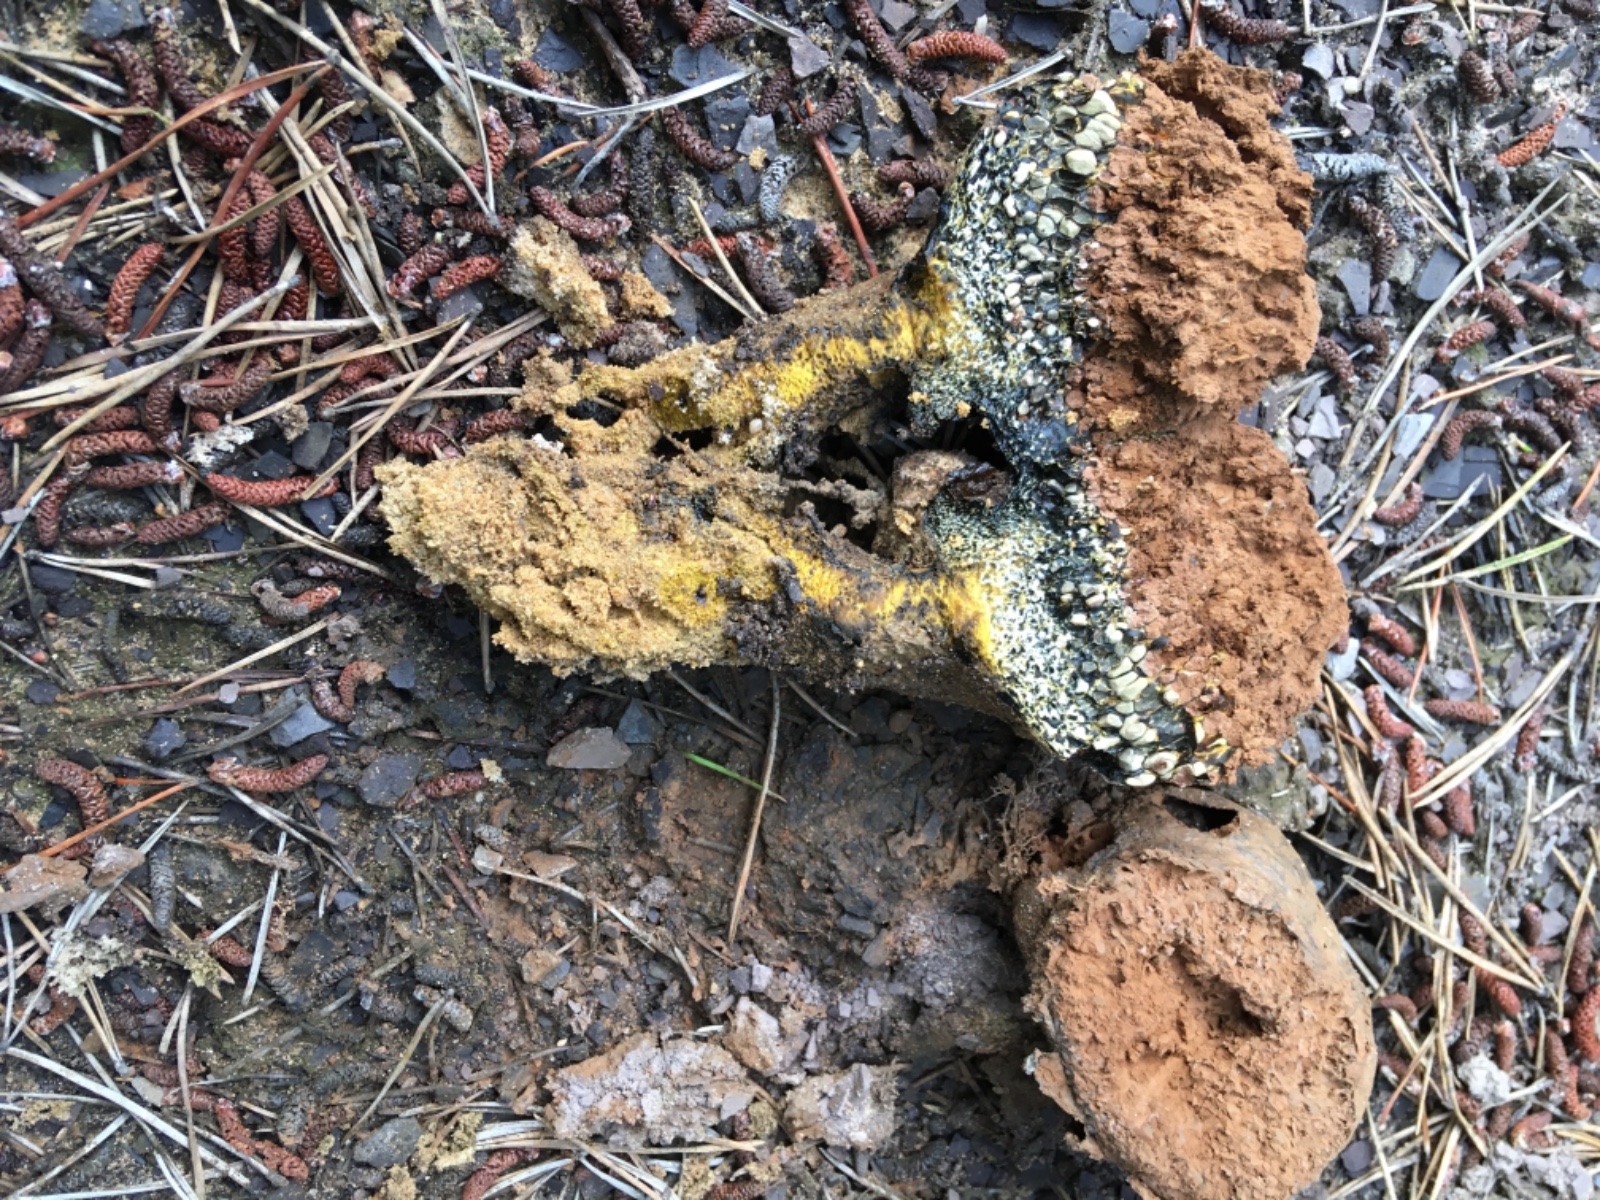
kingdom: Fungi
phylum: Basidiomycota
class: Agaricomycetes
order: Boletales
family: Sclerodermataceae
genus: Pisolithus
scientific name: Pisolithus capsulifer
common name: farvebold
